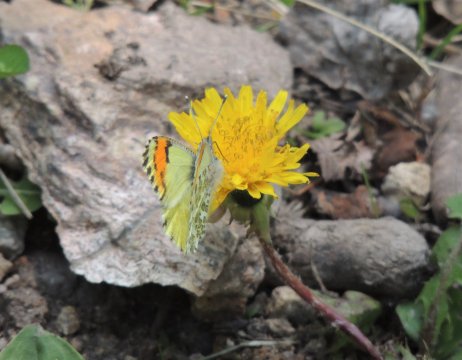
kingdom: Animalia
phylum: Arthropoda
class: Insecta
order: Lepidoptera
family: Pieridae
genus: Anthocharis
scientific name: Anthocharis julia
